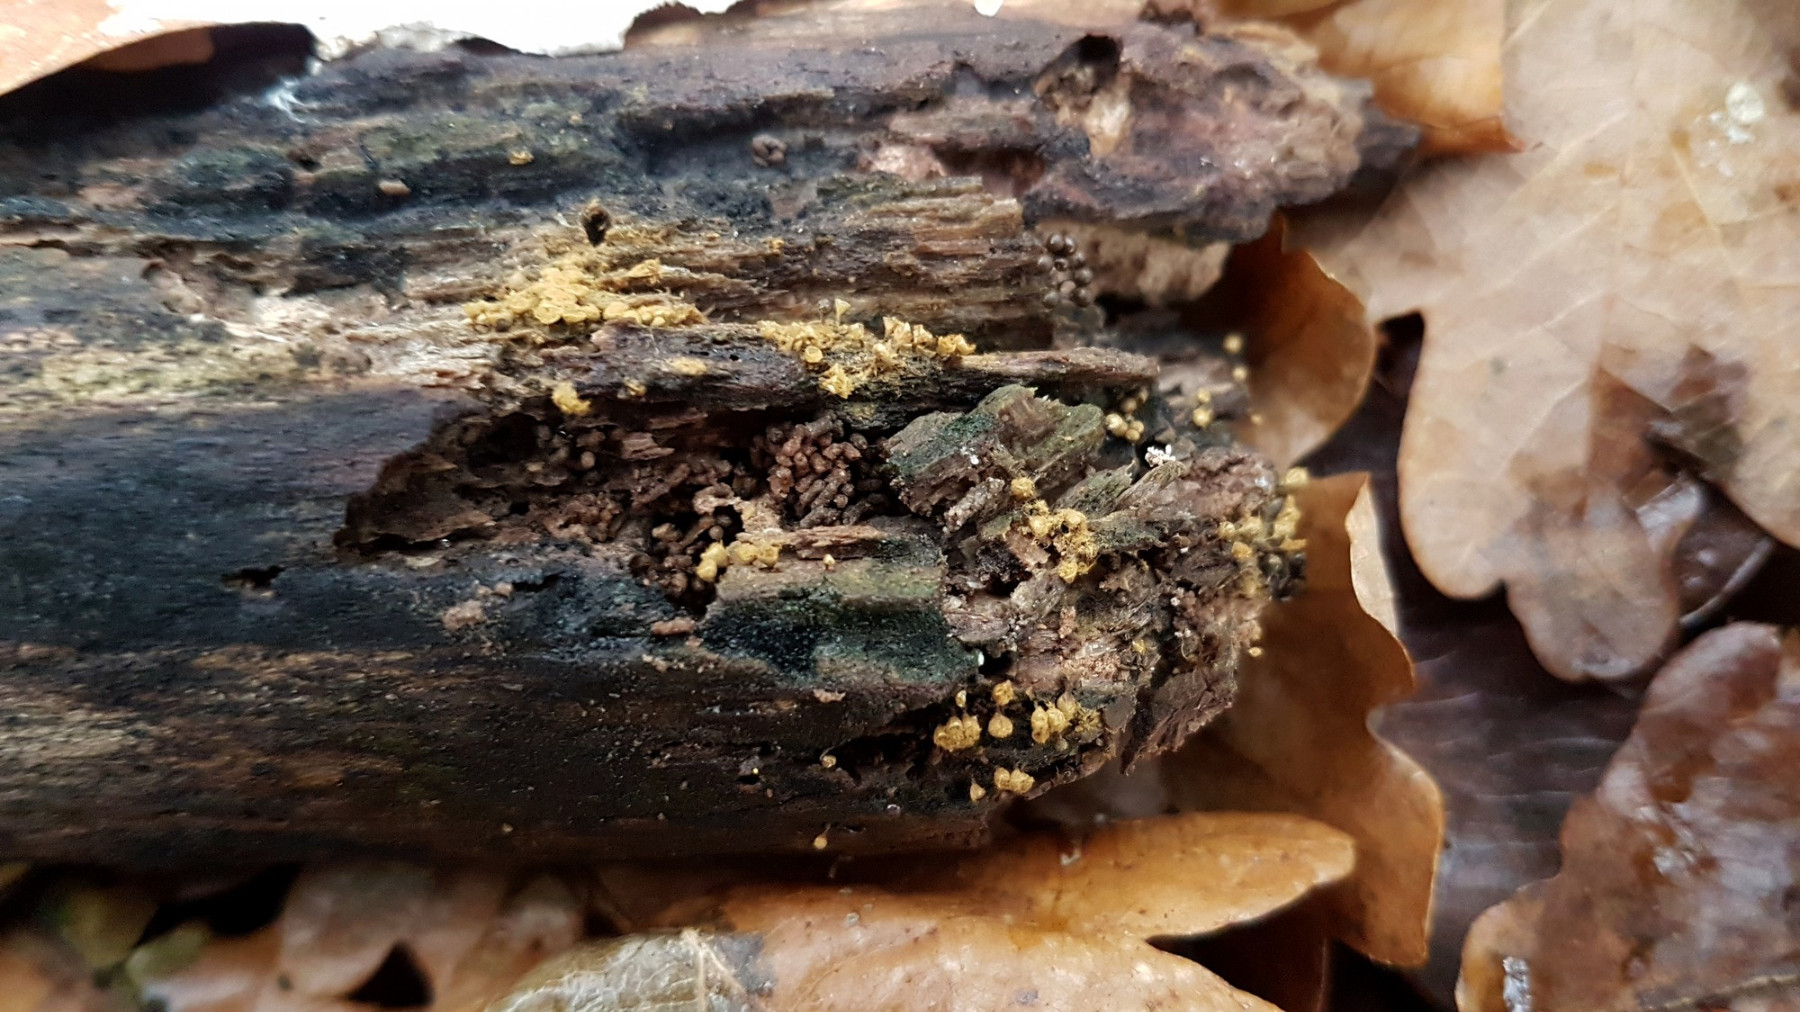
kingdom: Protozoa
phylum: Mycetozoa
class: Myxomycetes
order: Trichiales
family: Trichiaceae
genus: Trichia
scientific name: Trichia crateriformis
